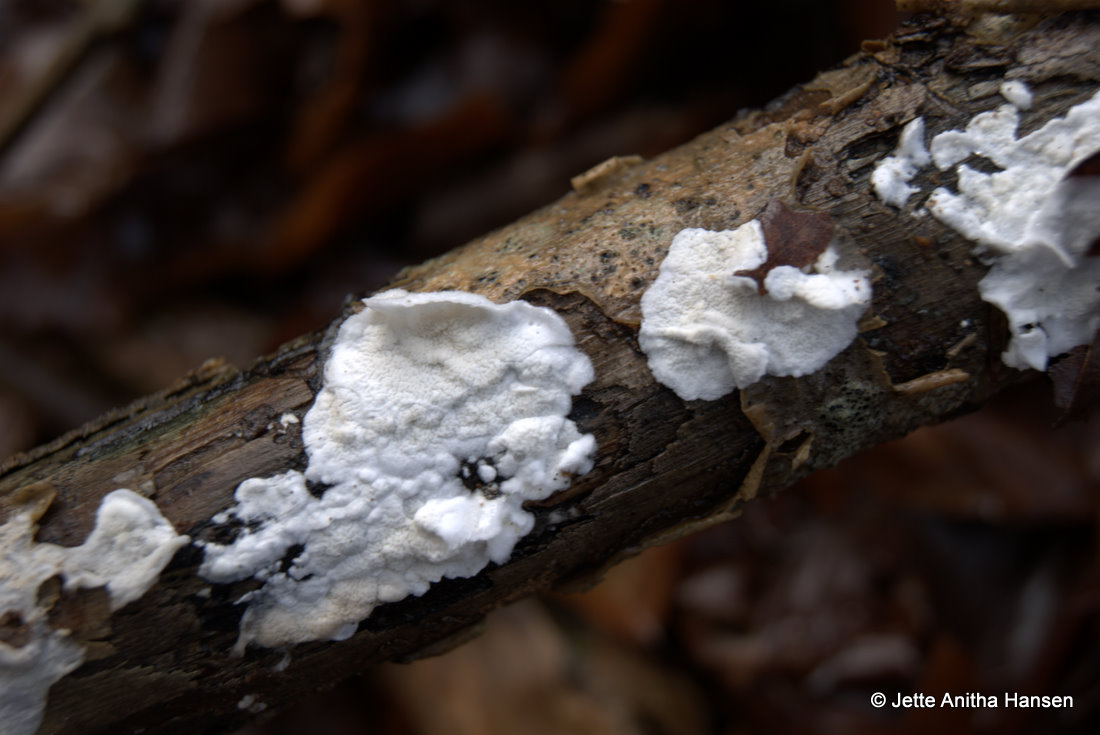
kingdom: Fungi
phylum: Basidiomycota
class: Agaricomycetes
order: Polyporales
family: Irpicaceae
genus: Byssomerulius
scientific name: Byssomerulius corium
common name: læder-åresvamp
